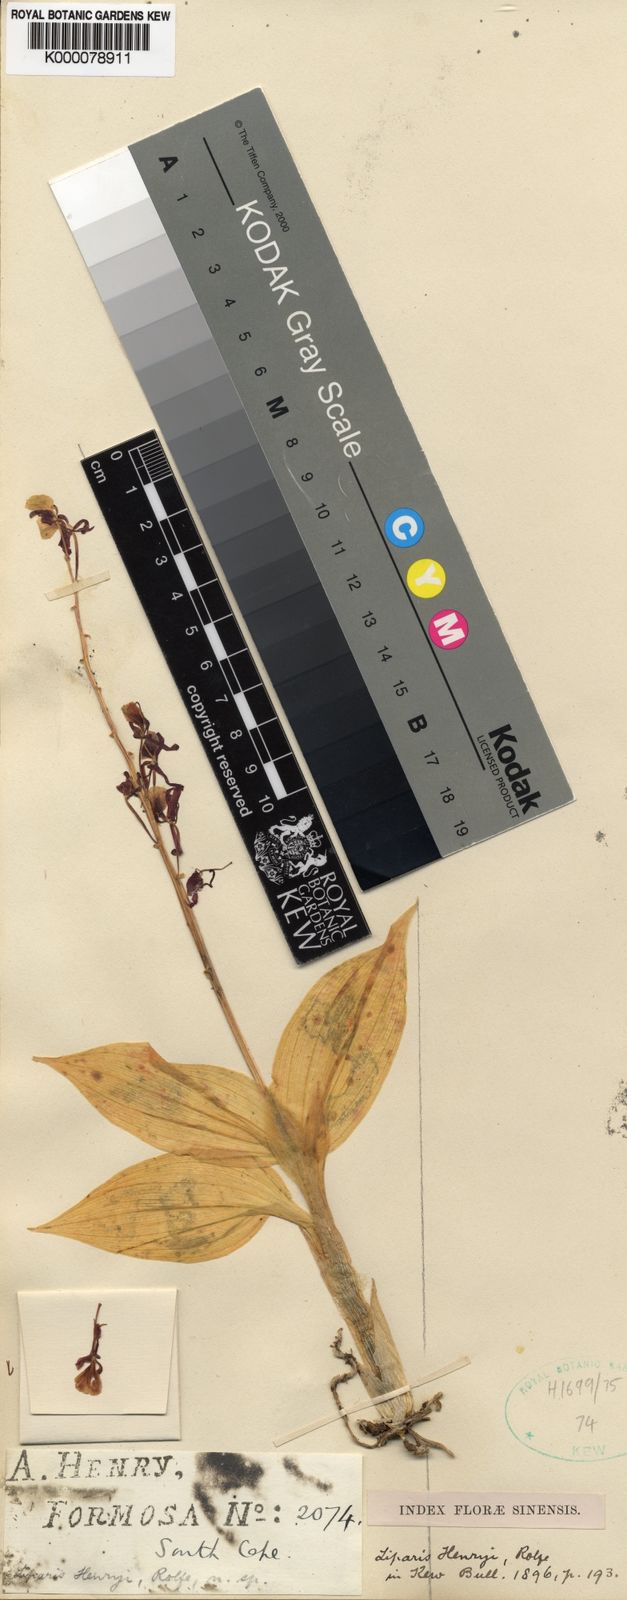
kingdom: Plantae
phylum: Tracheophyta
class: Liliopsida
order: Asparagales
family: Orchidaceae
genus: Liparis
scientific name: Liparis henryi
